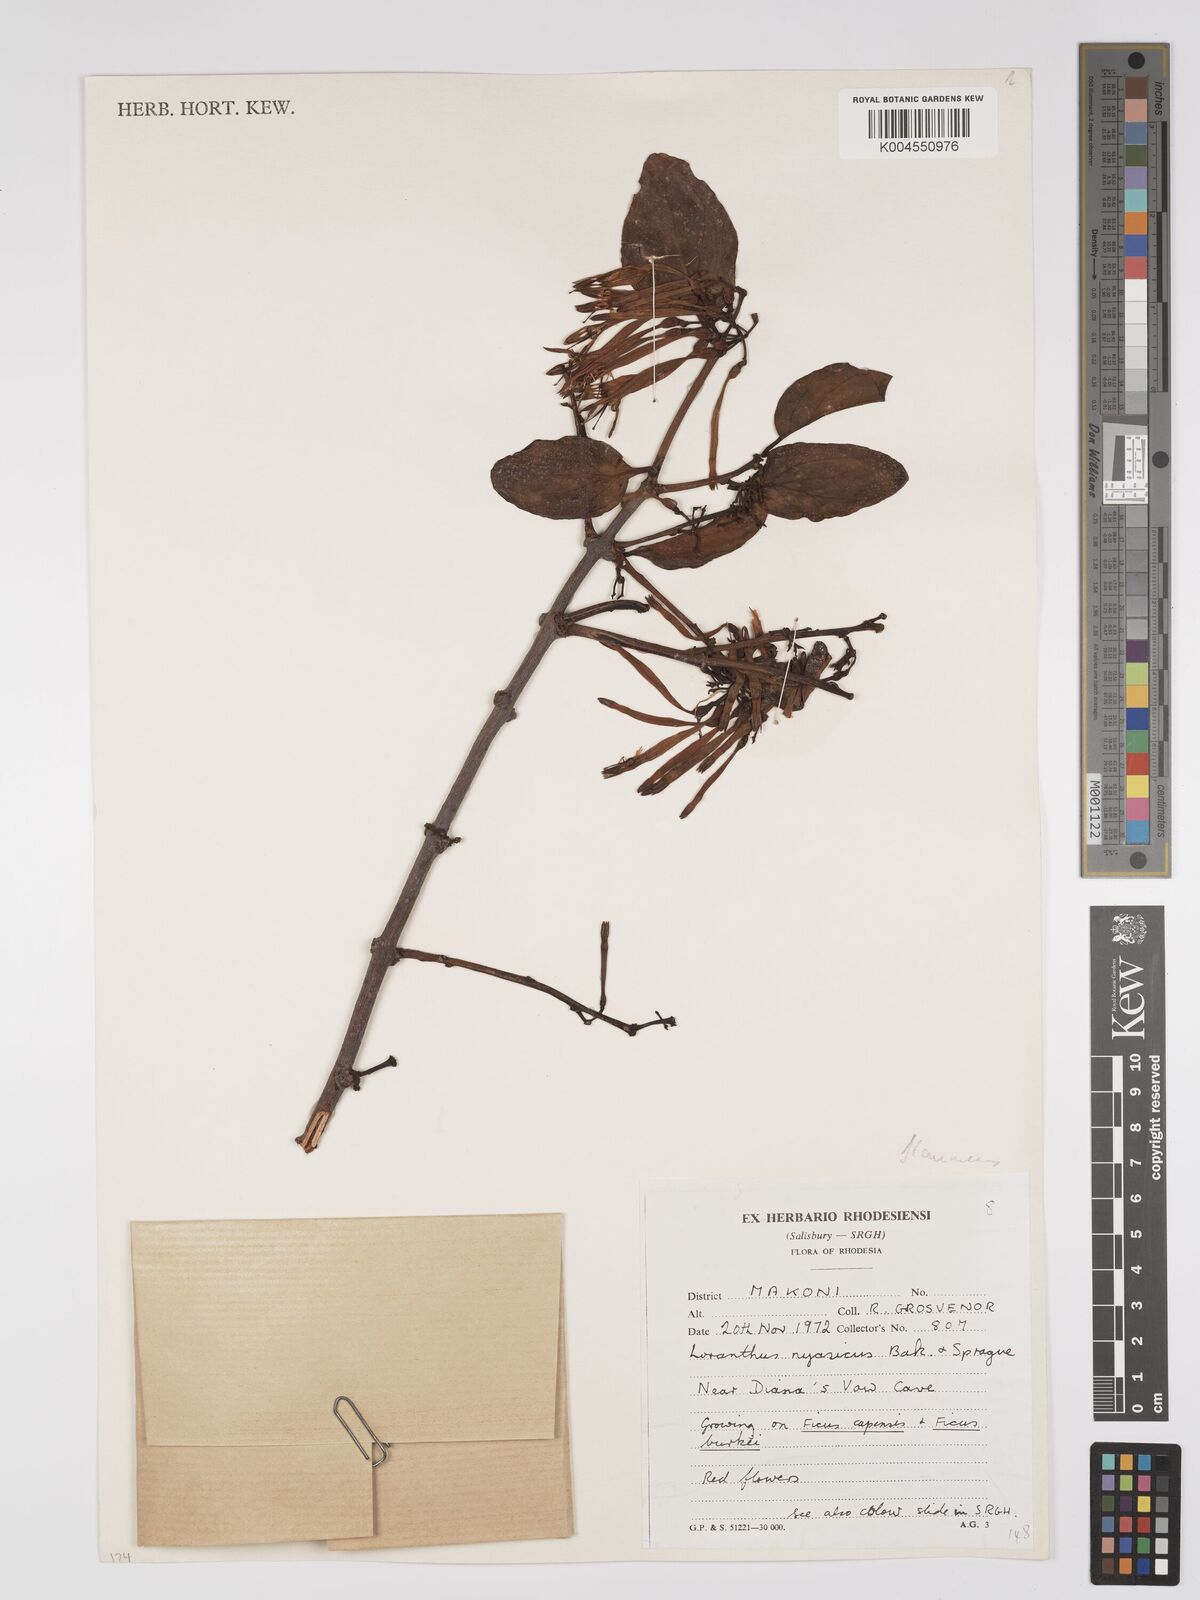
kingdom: Plantae
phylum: Tracheophyta
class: Magnoliopsida
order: Santalales
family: Loranthaceae
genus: Agelanthus
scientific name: Agelanthus flammeus
